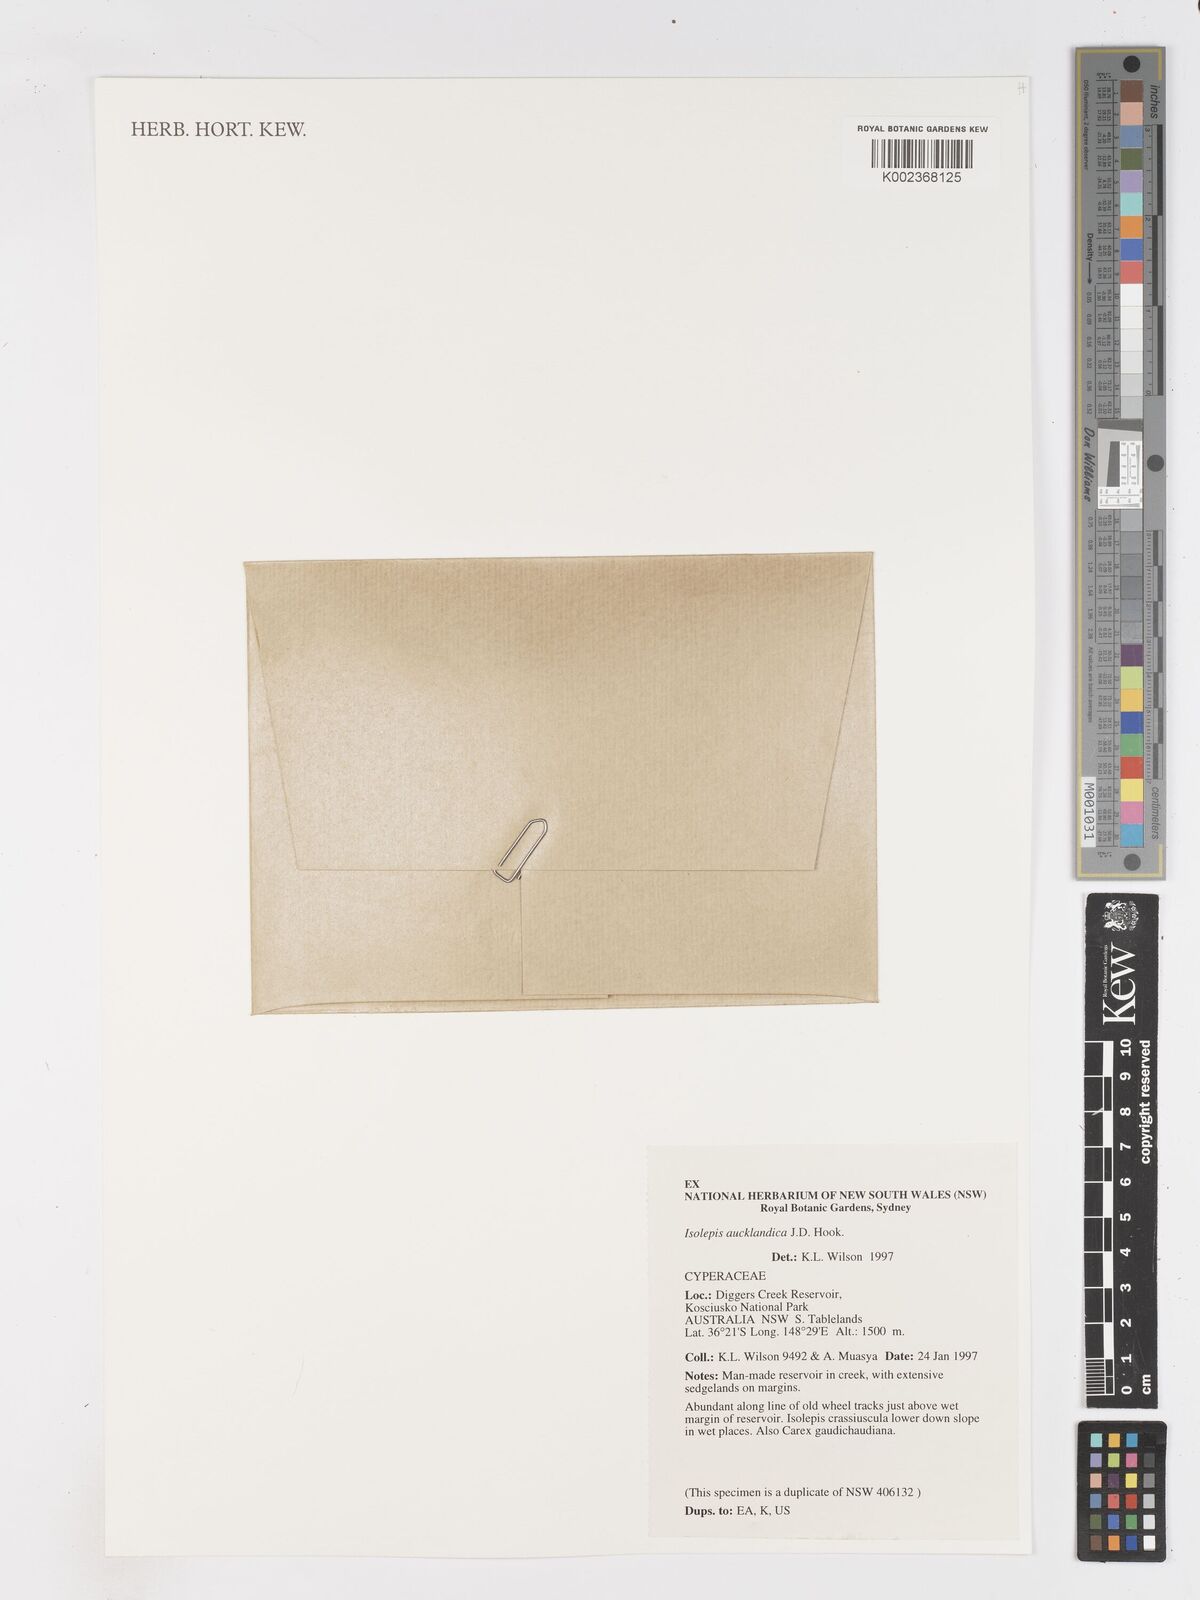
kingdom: Plantae
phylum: Tracheophyta
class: Liliopsida
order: Poales
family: Cyperaceae
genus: Isolepis
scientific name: Isolepis aucklandica
